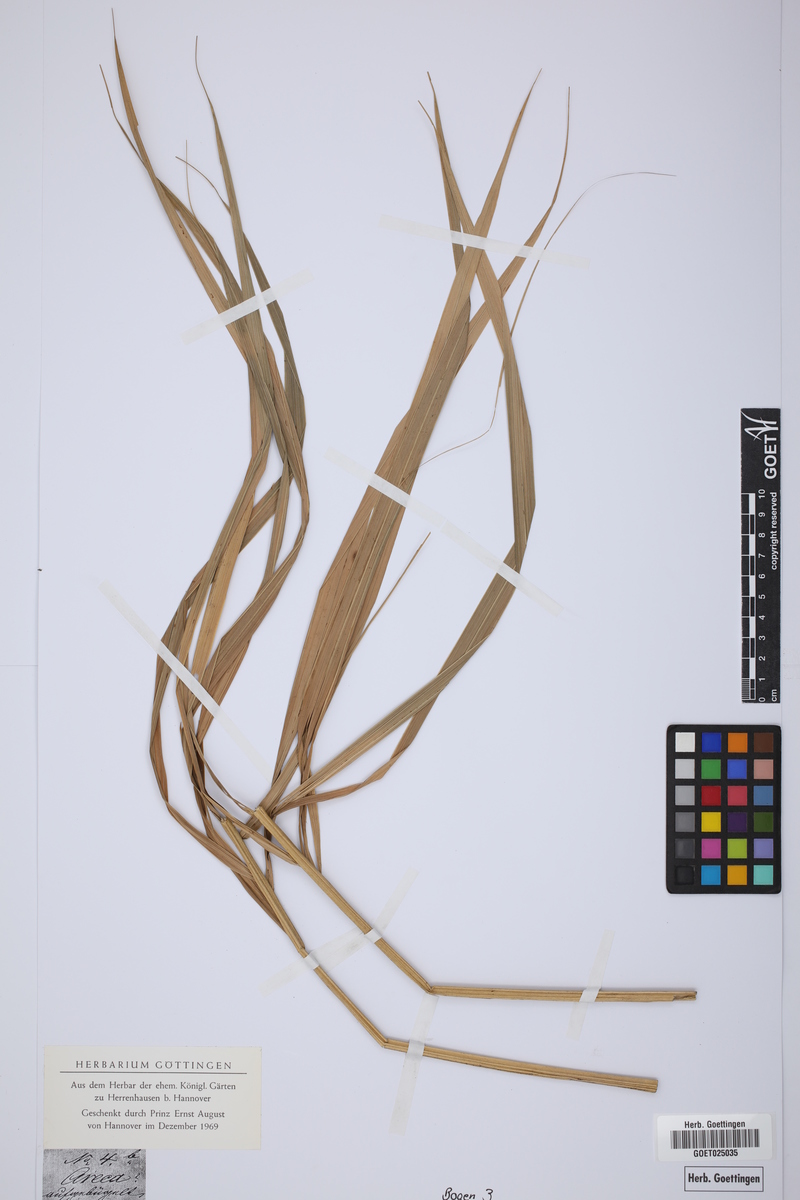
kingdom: Plantae
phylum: Tracheophyta
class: Liliopsida
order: Arecales
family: Arecaceae
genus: Areca
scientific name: Areca
